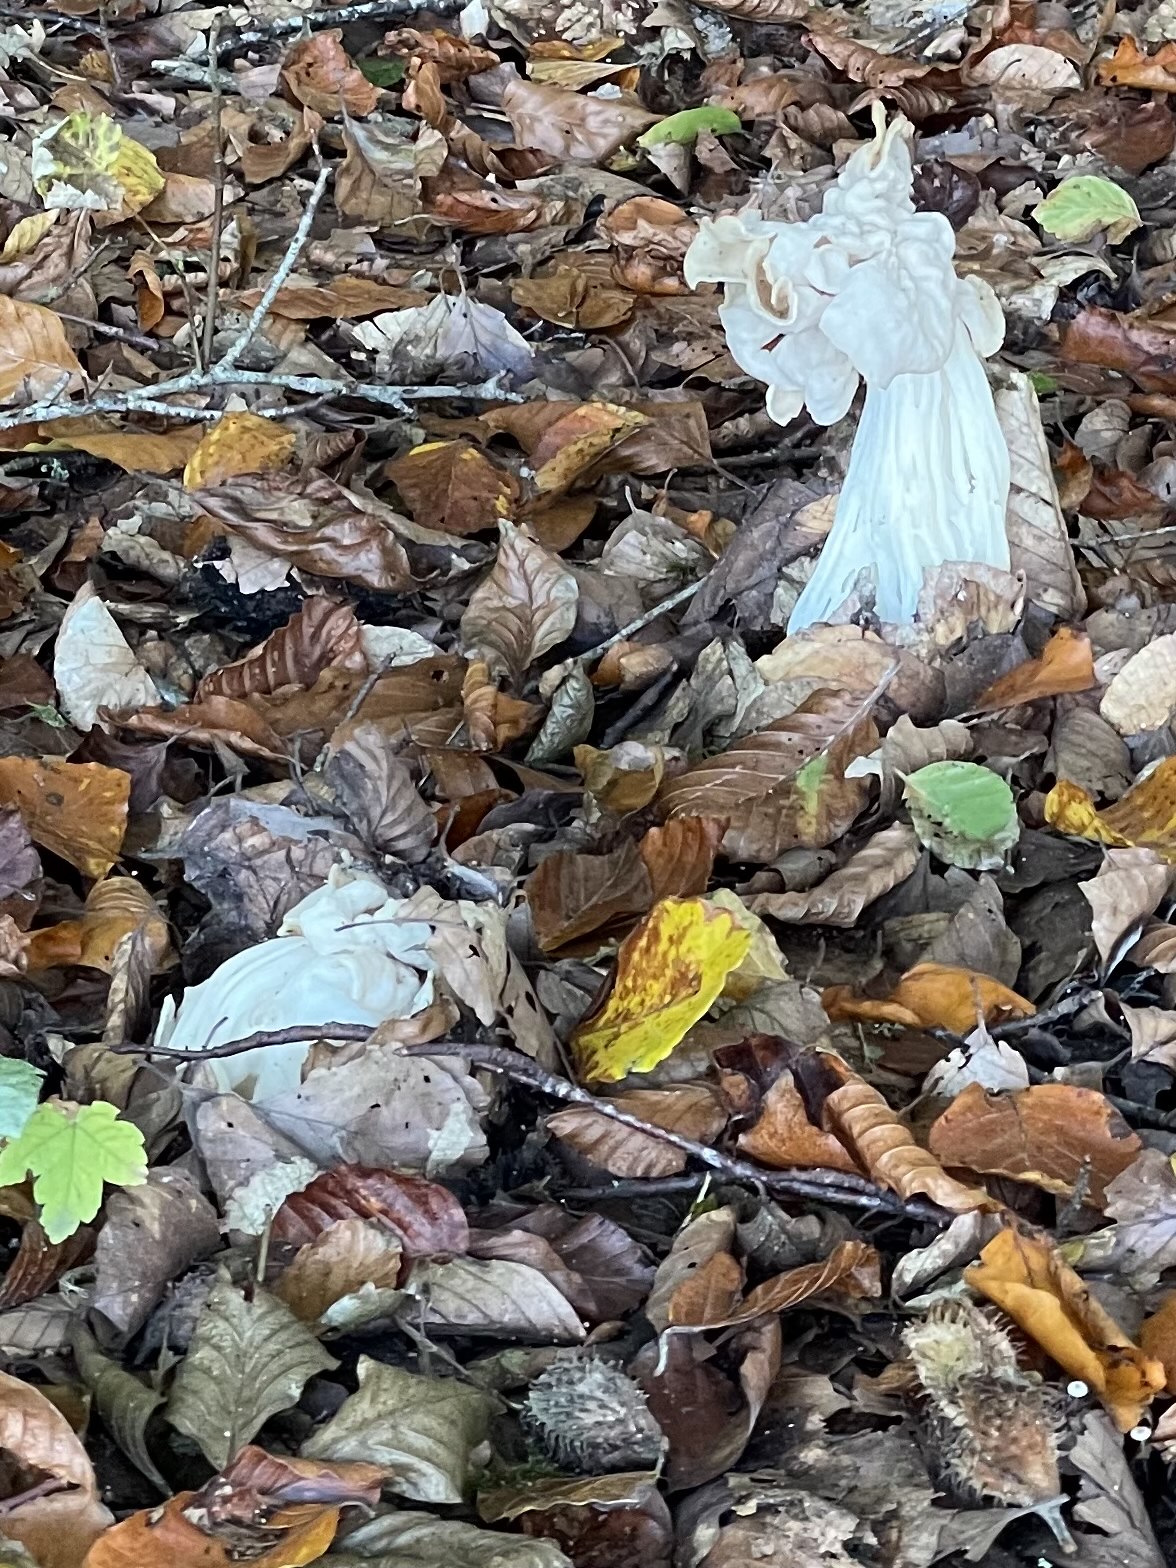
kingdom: Fungi
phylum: Ascomycota
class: Pezizomycetes
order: Pezizales
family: Helvellaceae
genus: Helvella
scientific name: Helvella crispa
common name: kruset foldhat
